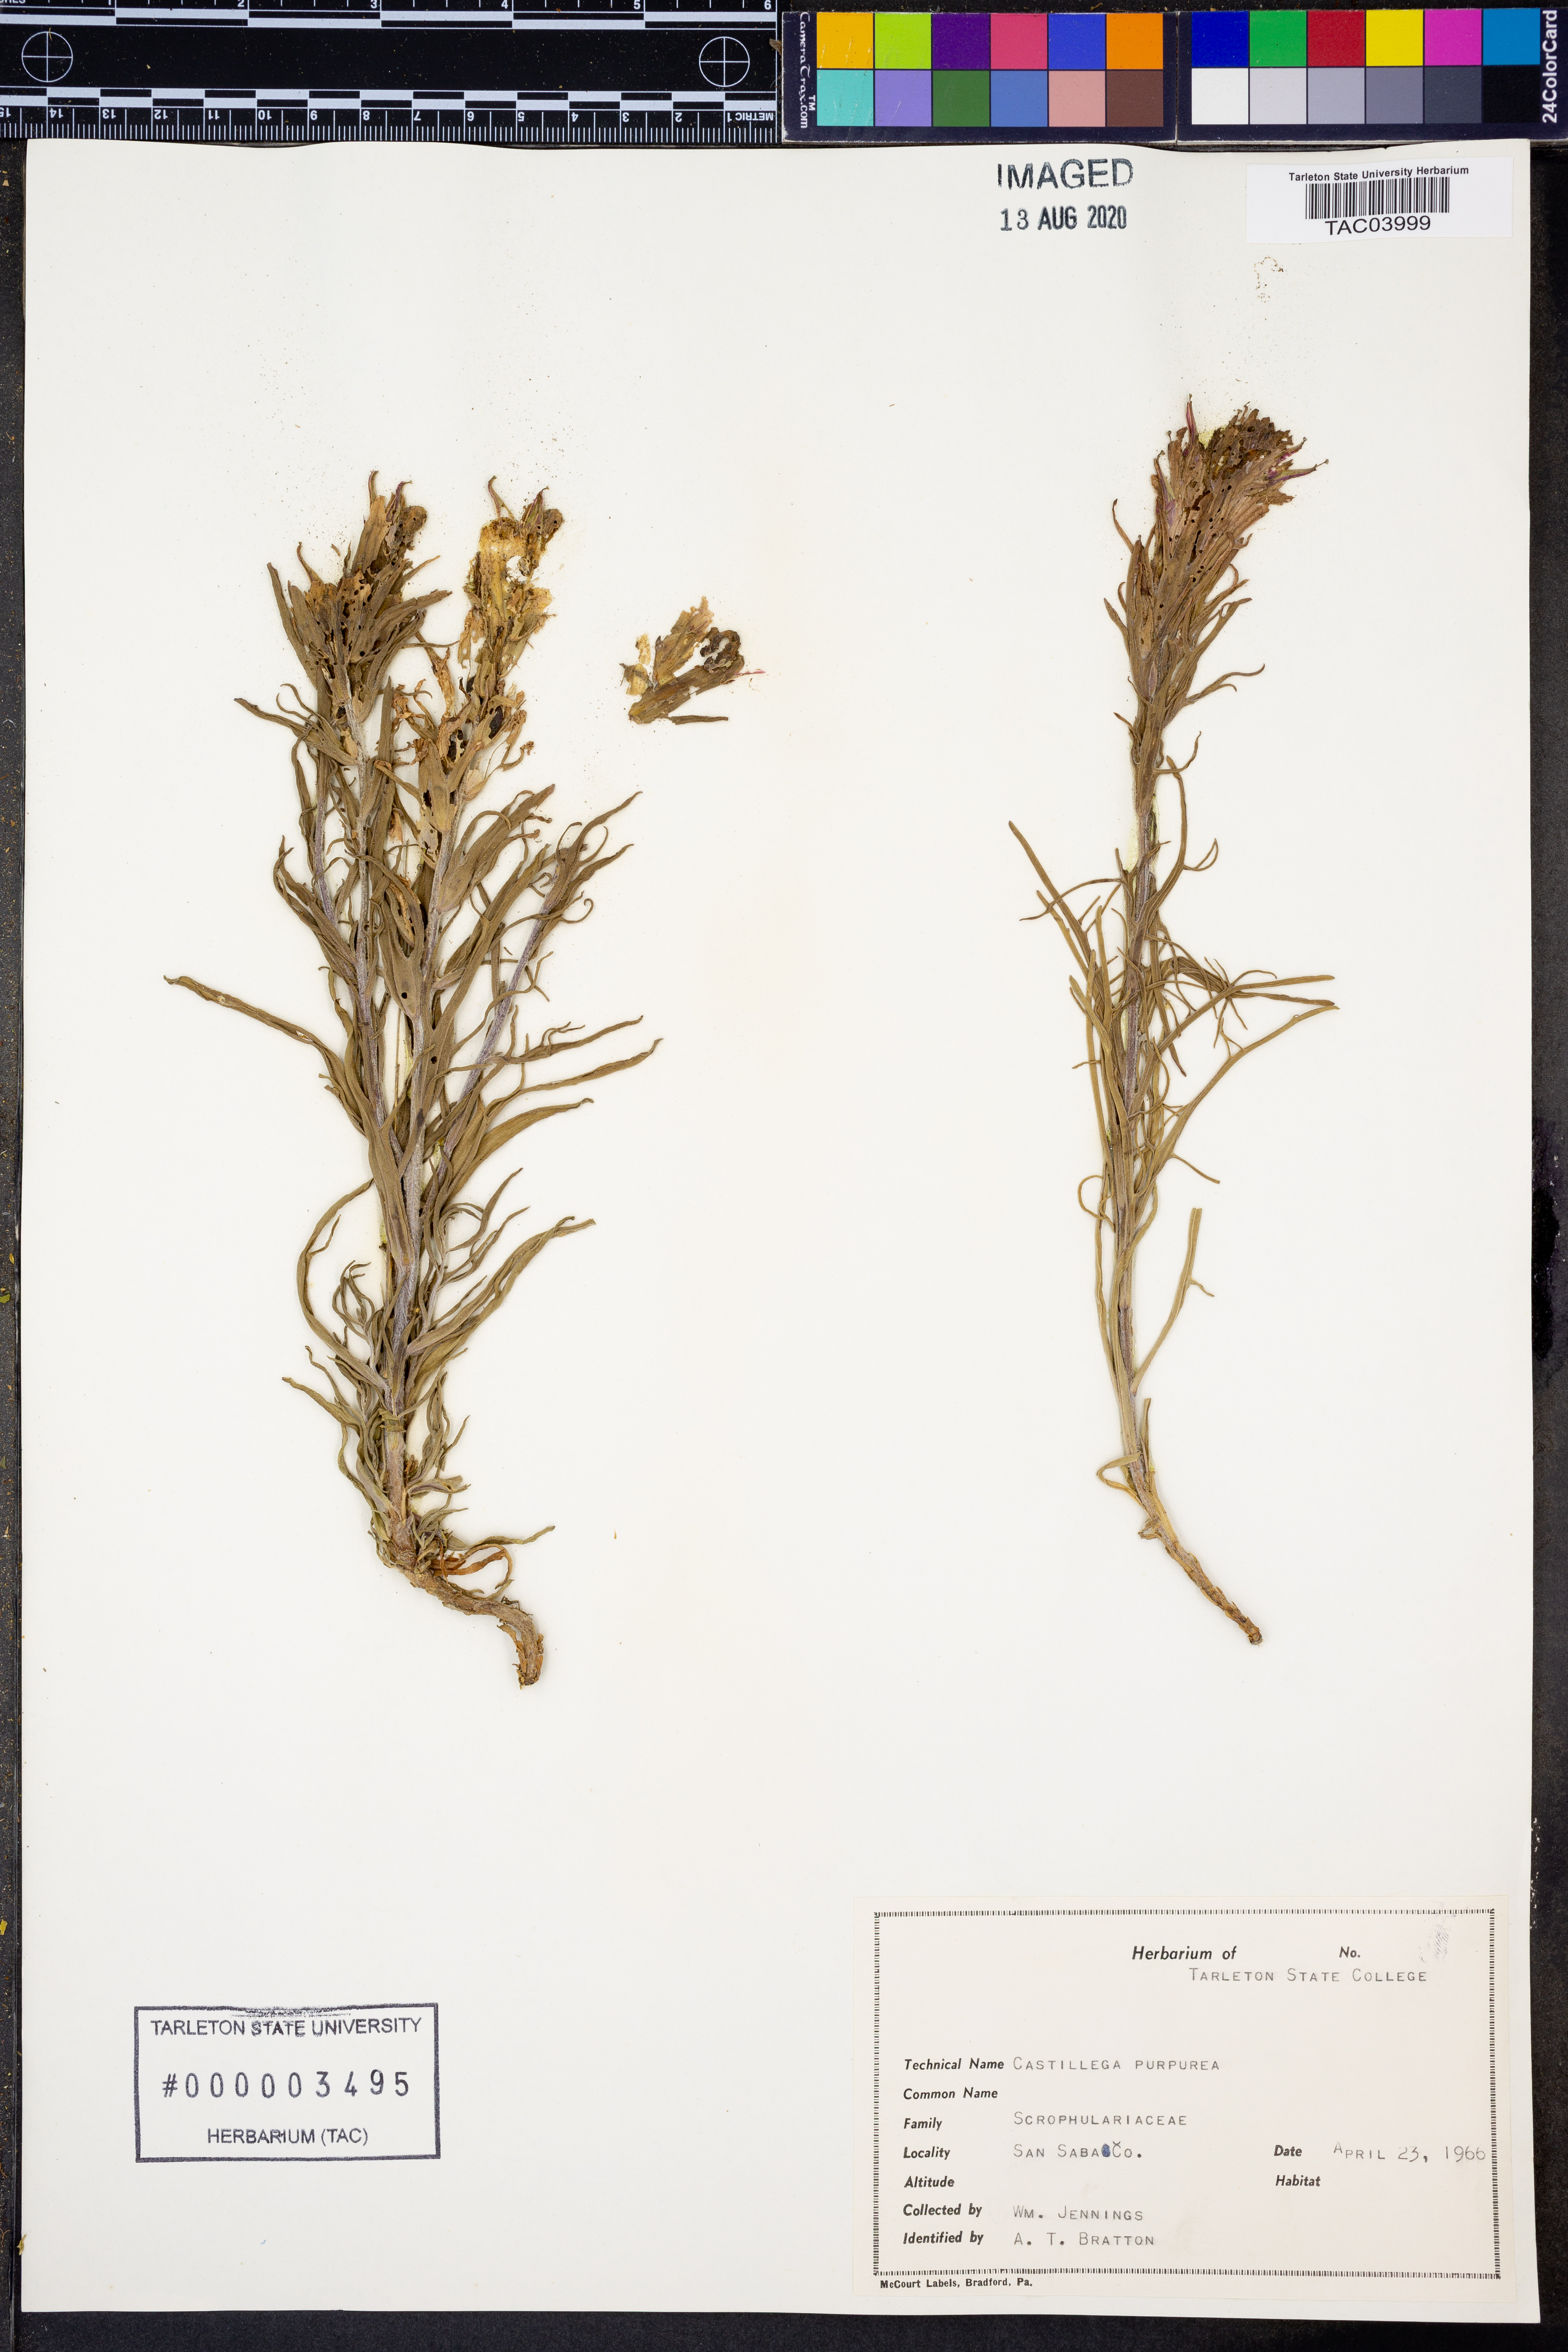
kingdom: Plantae
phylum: Tracheophyta
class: Magnoliopsida
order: Lamiales
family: Orobanchaceae
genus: Castilleja
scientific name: Castilleja purpurea
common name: Plains paintbrush
